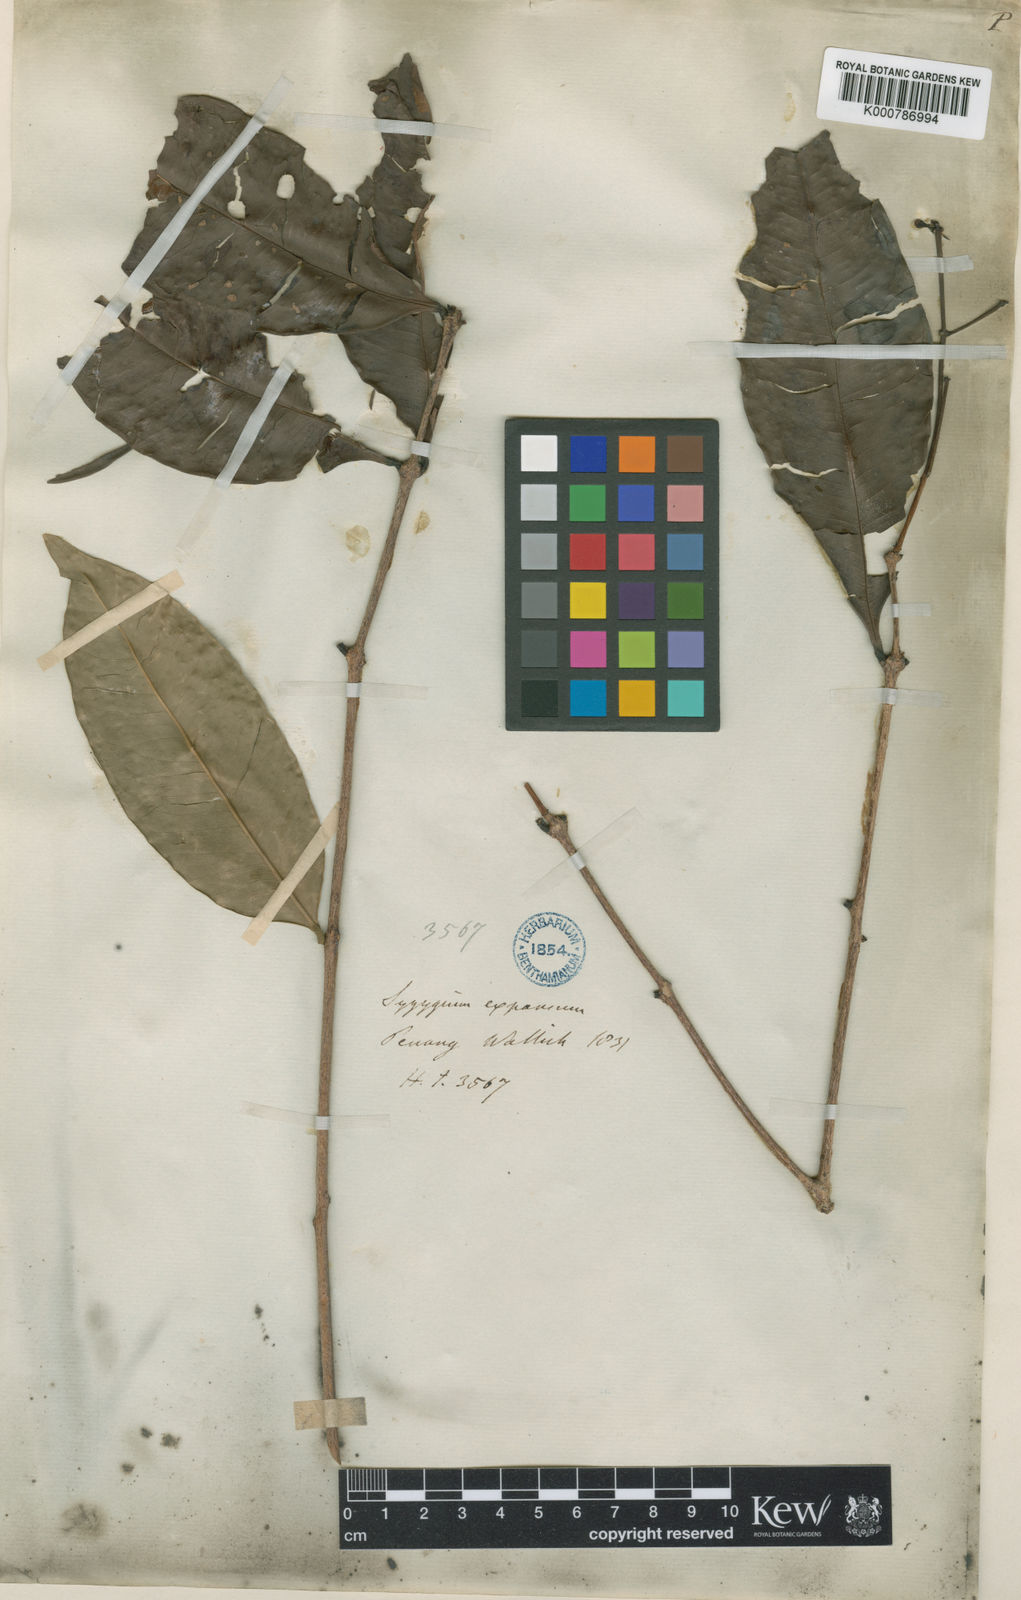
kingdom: Plantae
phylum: Tracheophyta
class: Magnoliopsida
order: Myrtales
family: Myrtaceae
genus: Syzygium
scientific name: Syzygium racemosum
